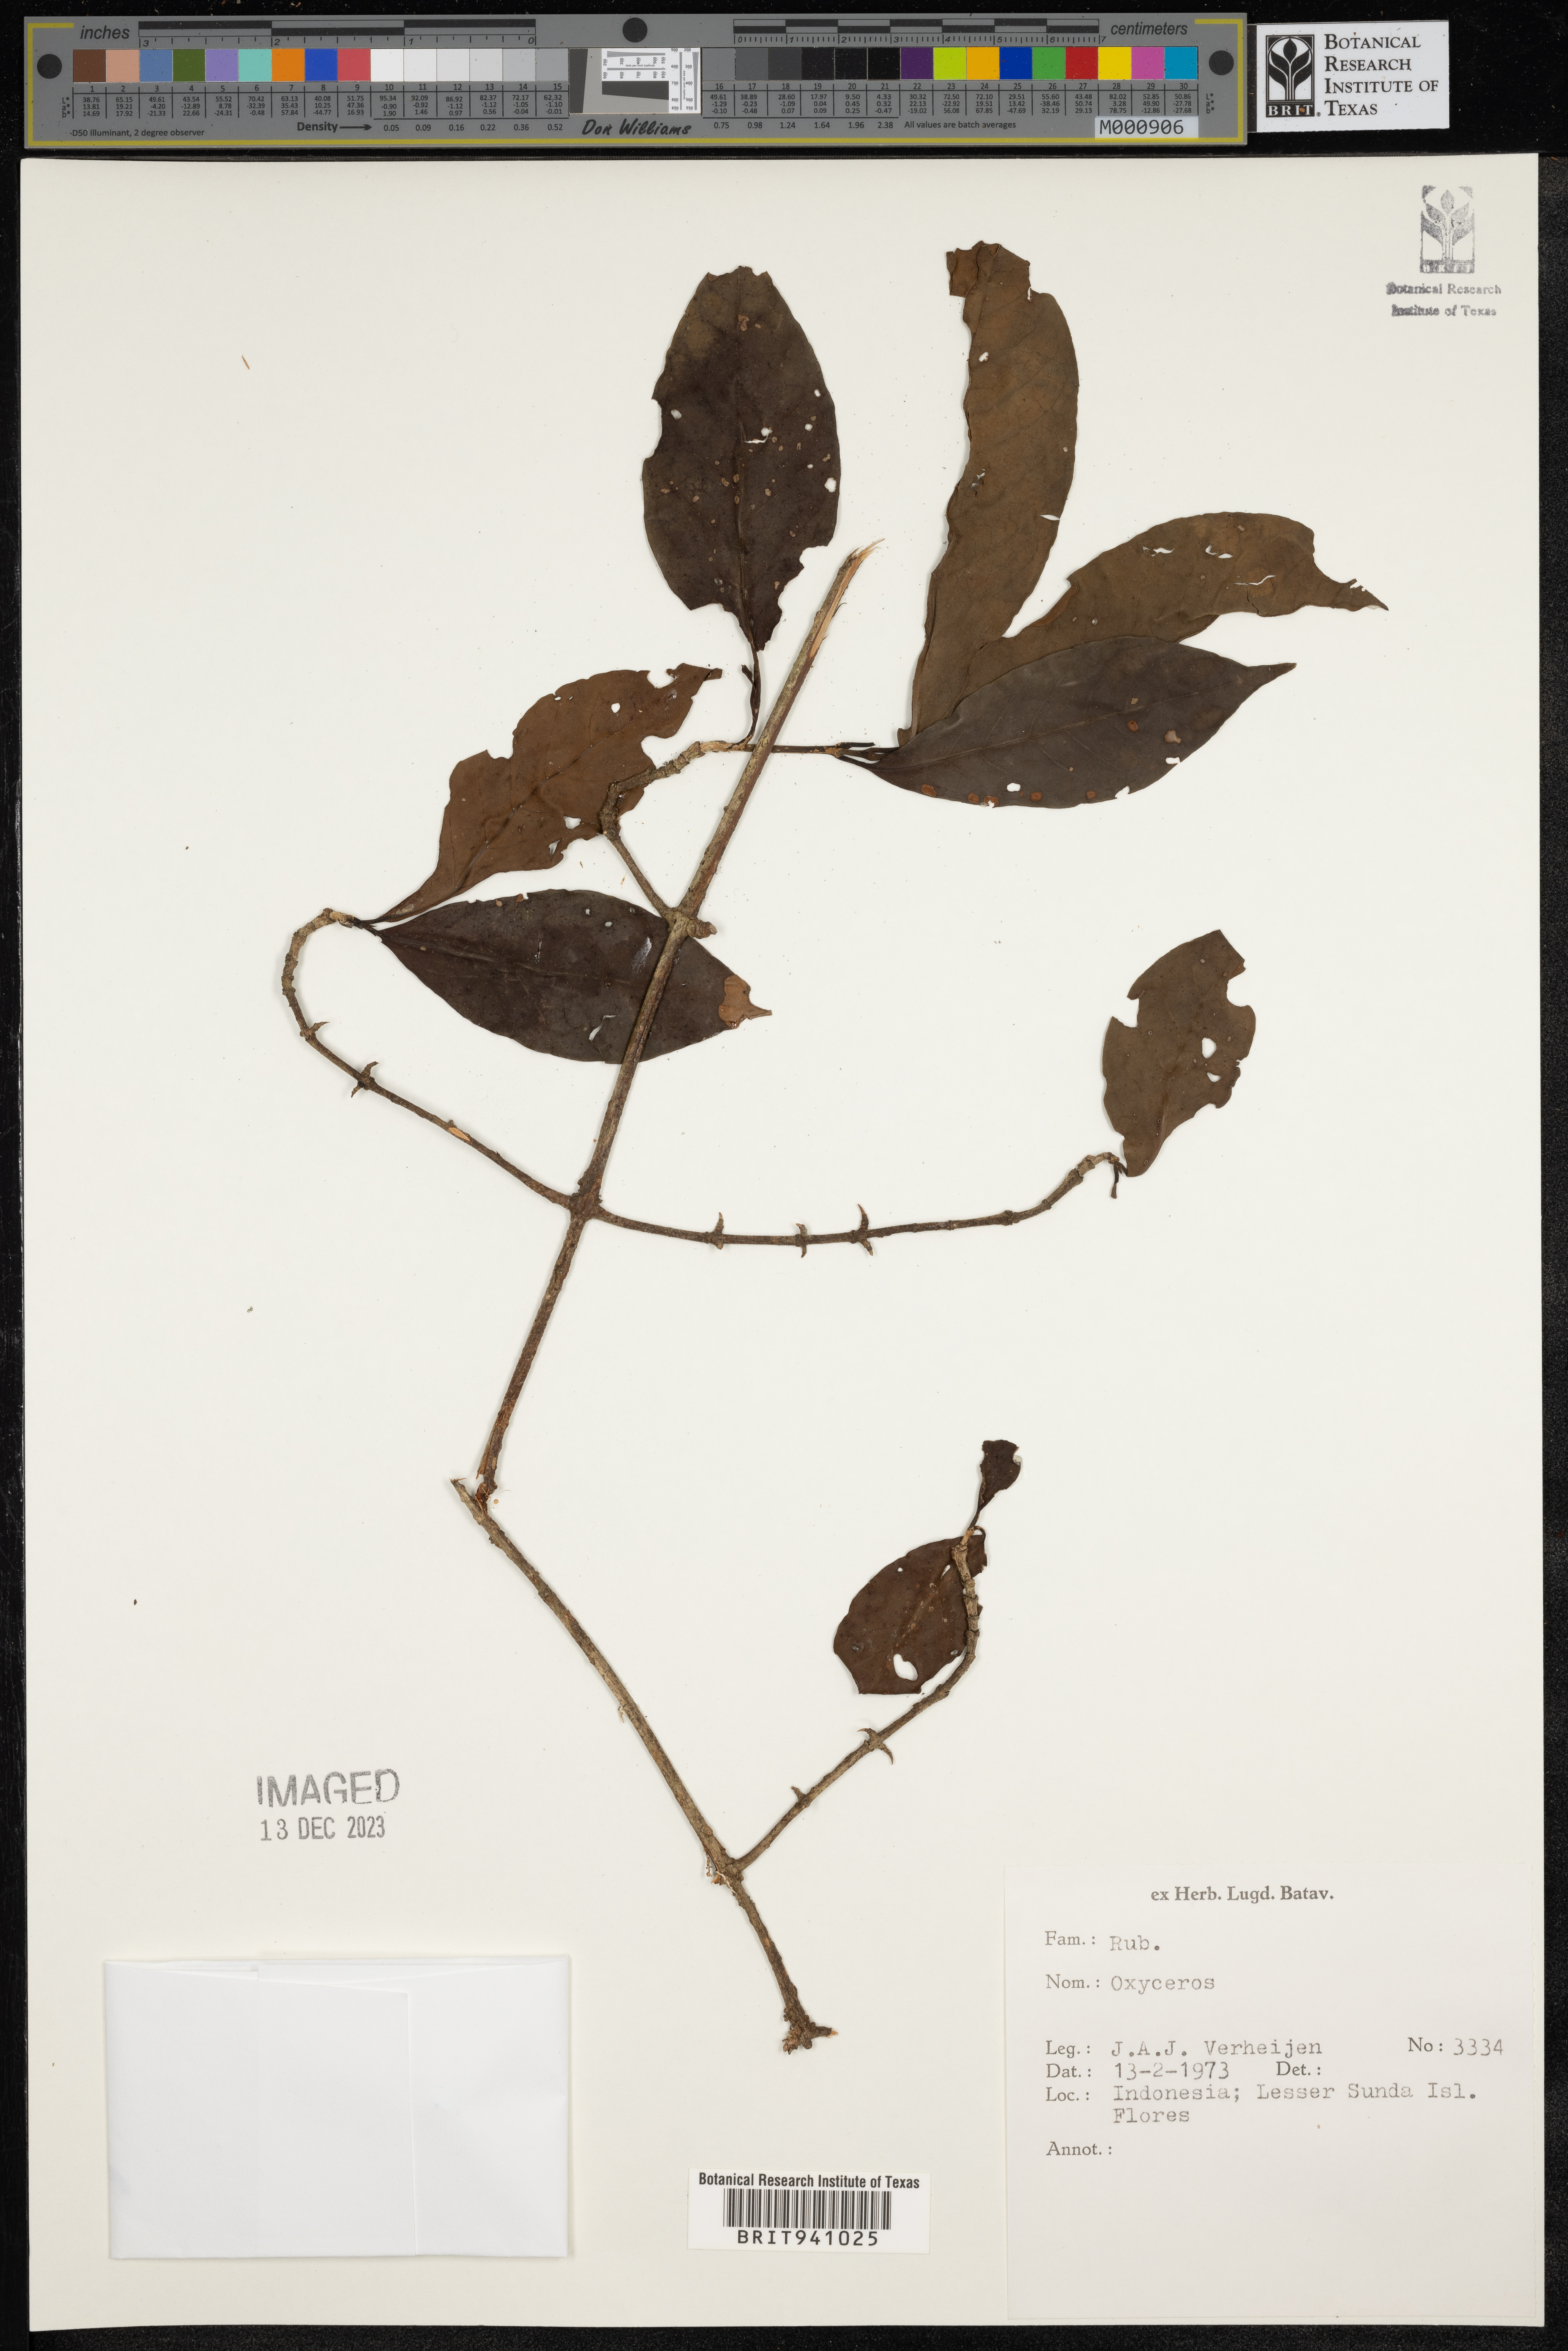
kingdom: Plantae
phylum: Tracheophyta
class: Magnoliopsida
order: Gentianales
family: Rubiaceae
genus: Oxyceros
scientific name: Oxyceros
